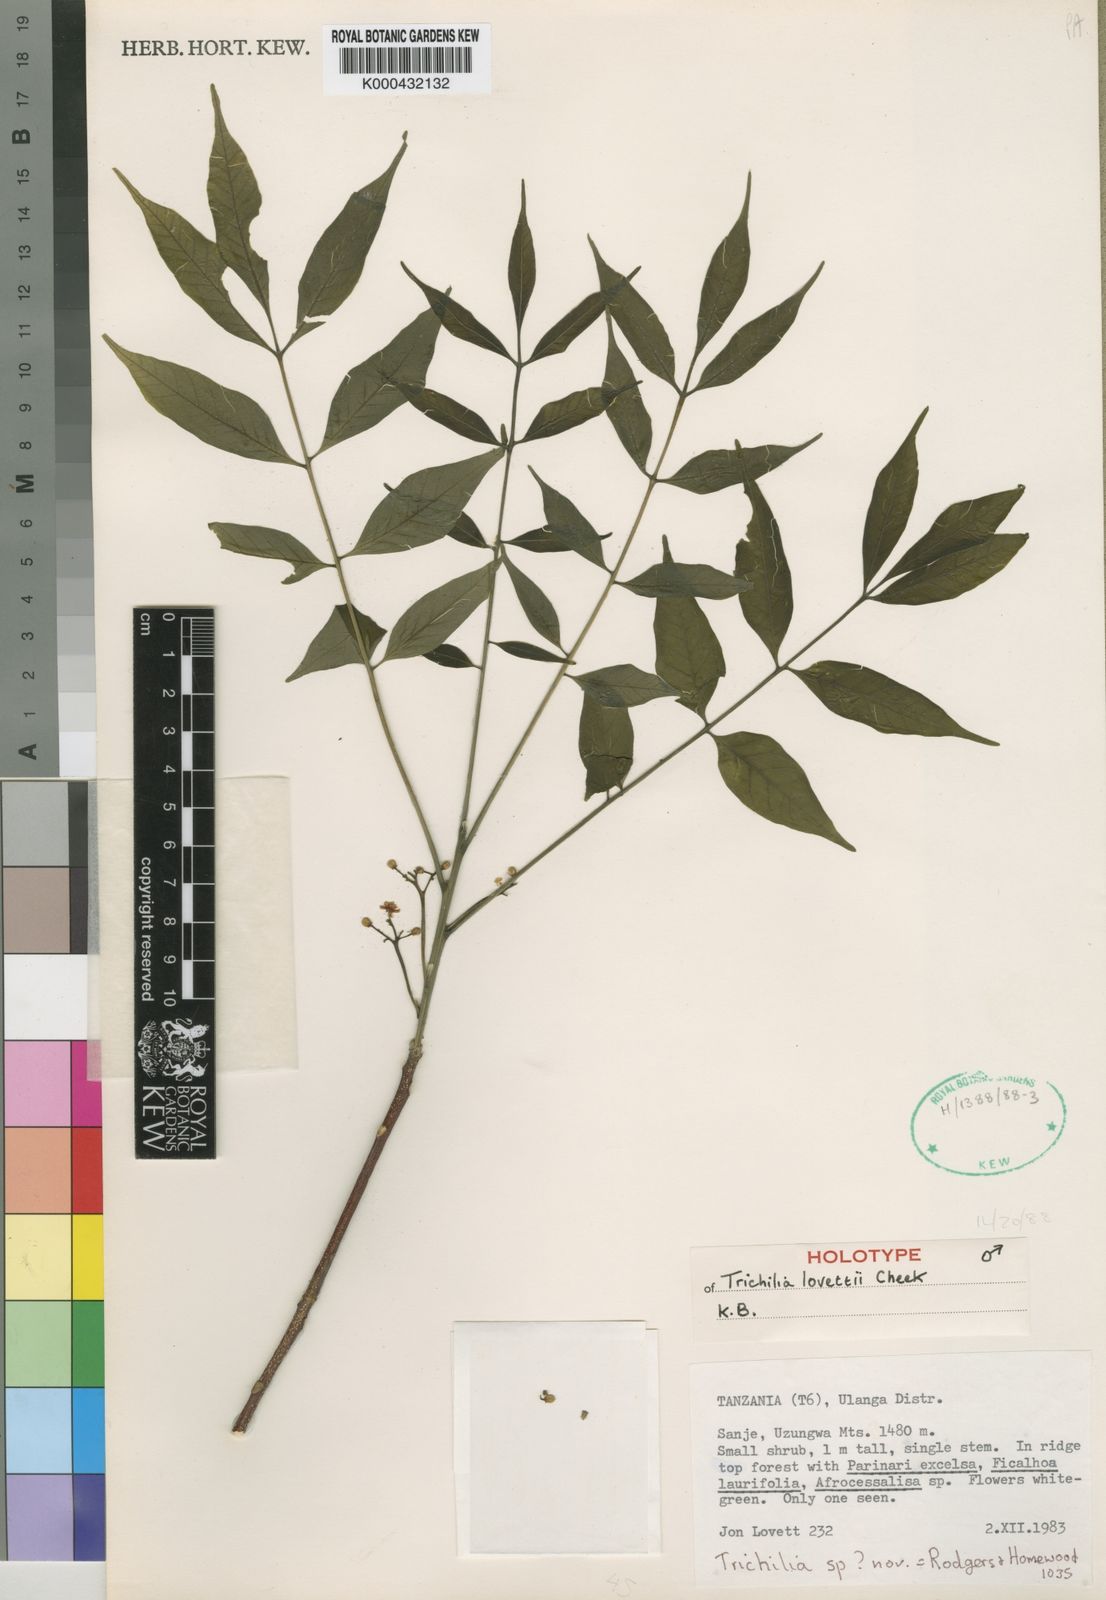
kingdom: Plantae
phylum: Tracheophyta
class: Magnoliopsida
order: Sapindales
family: Meliaceae
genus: Trichilia
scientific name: Trichilia lovettii
